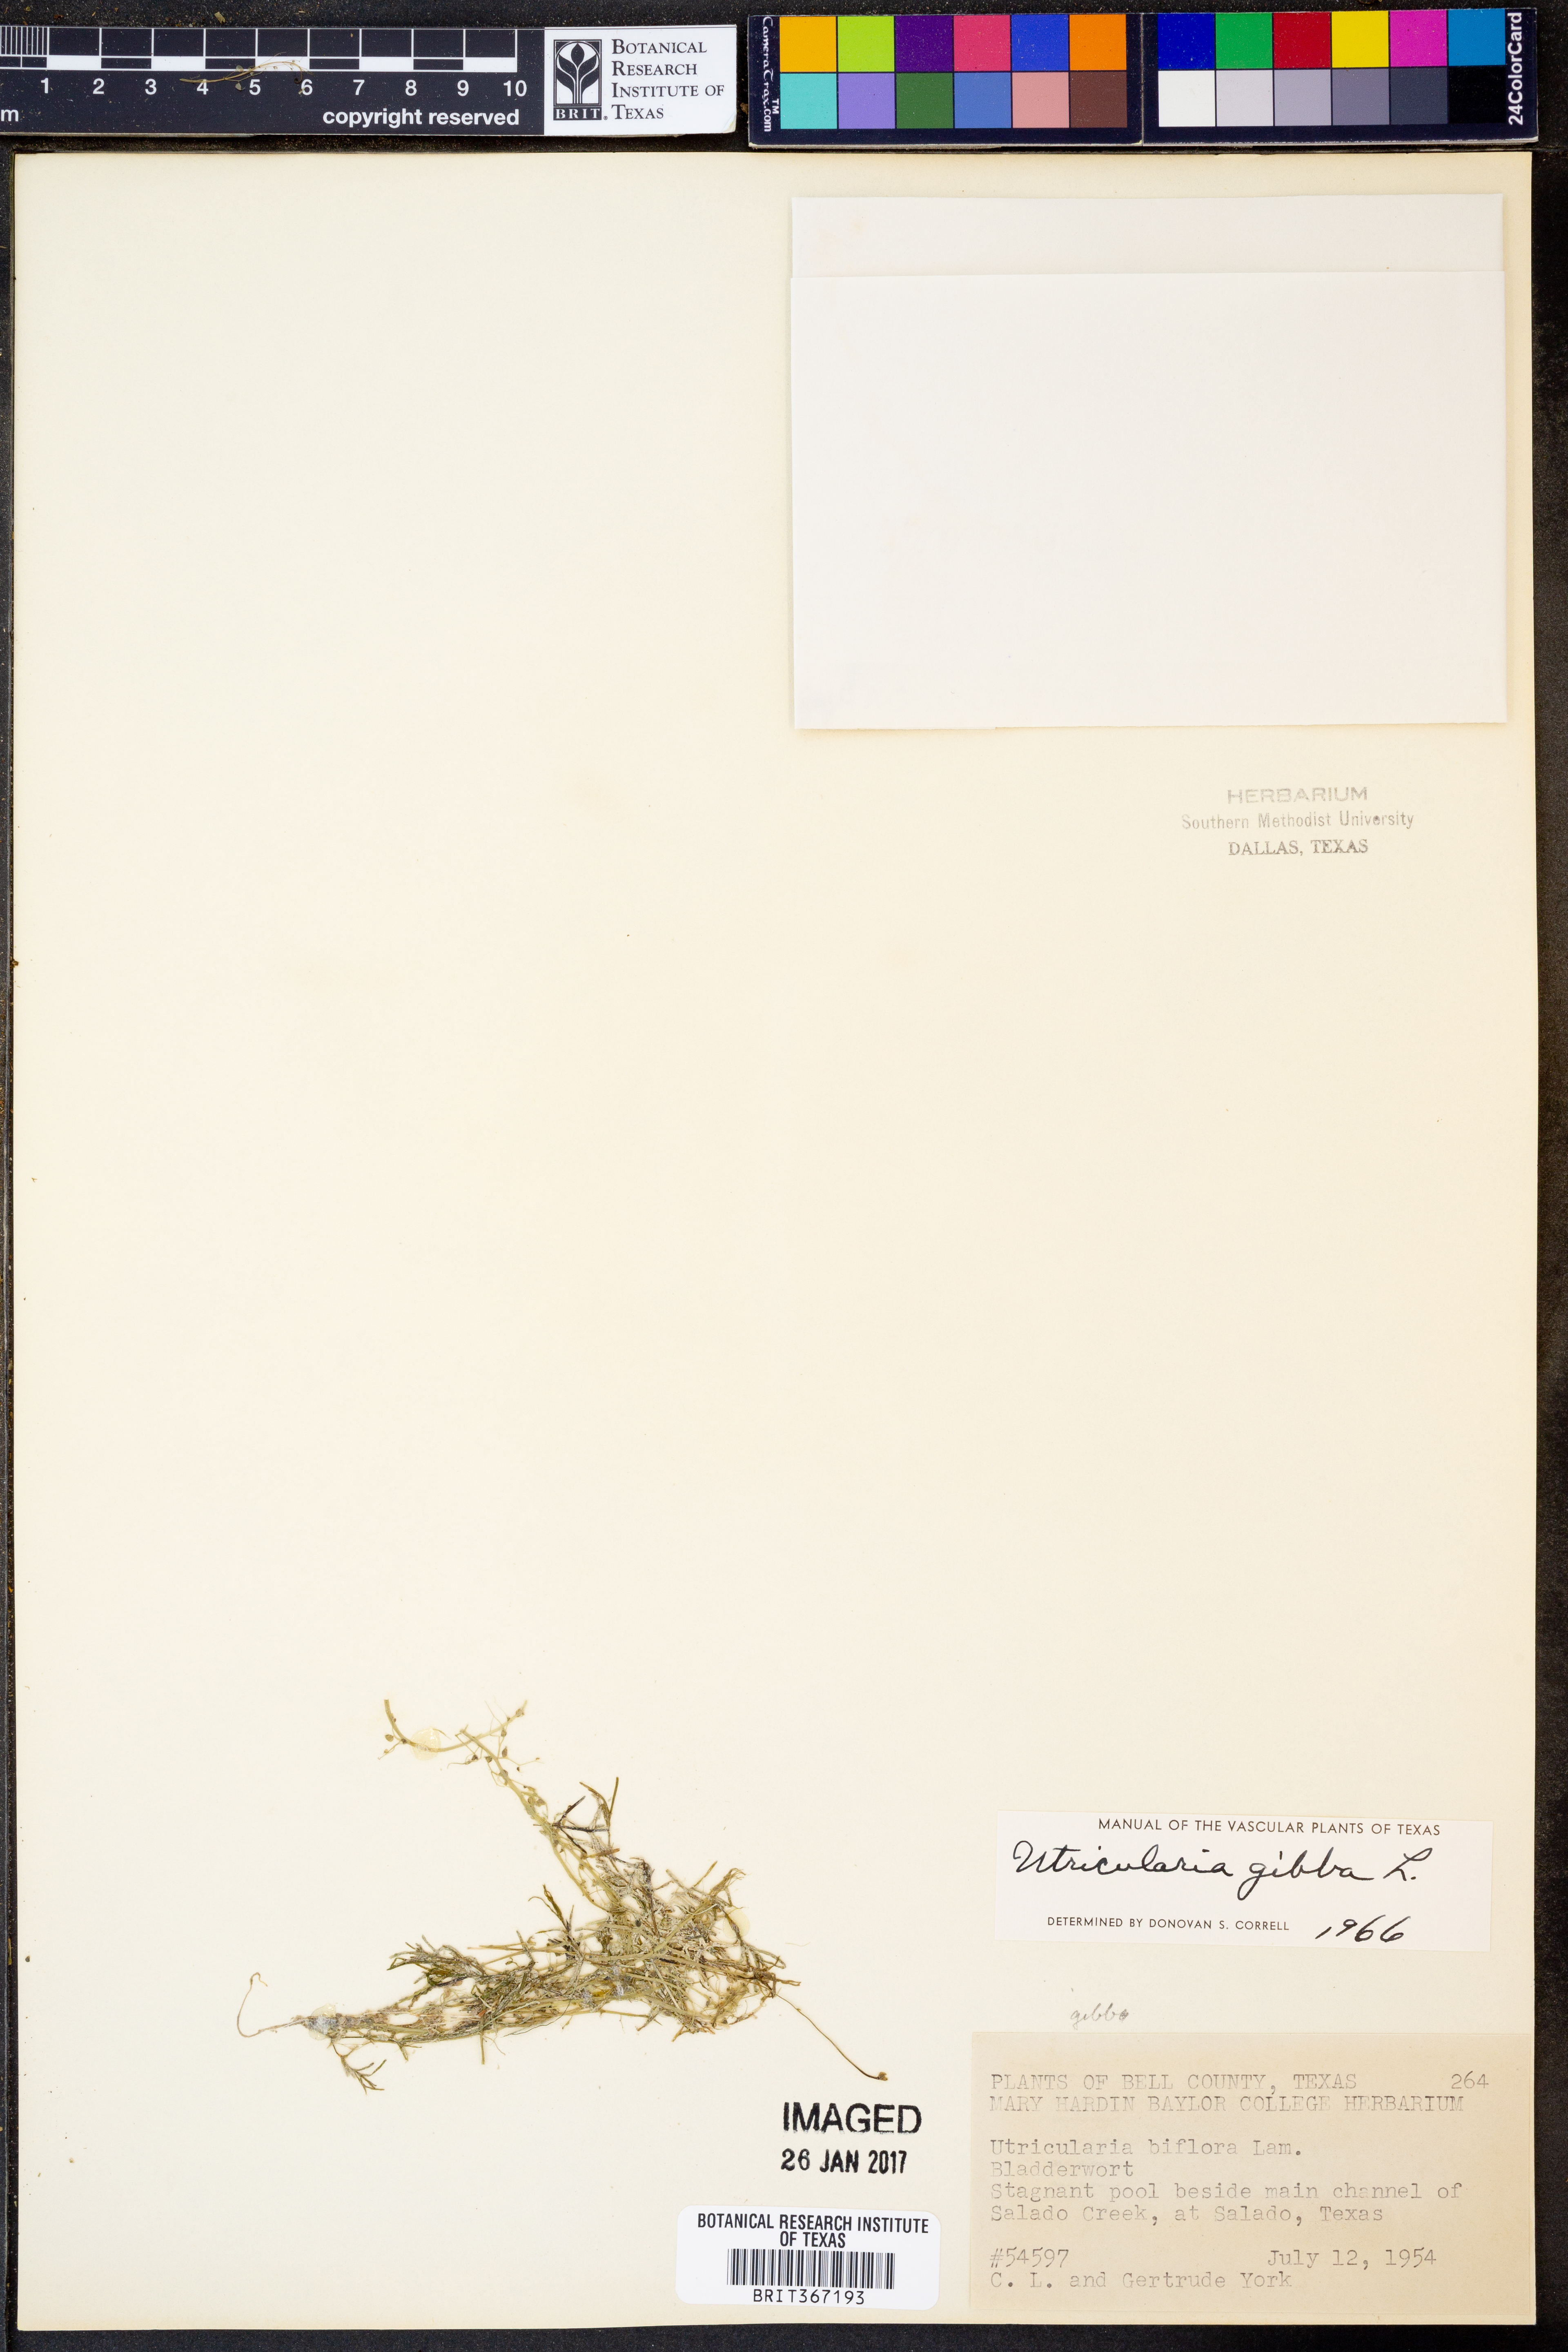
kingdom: Plantae
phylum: Tracheophyta
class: Magnoliopsida
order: Lamiales
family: Lentibulariaceae
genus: Utricularia
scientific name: Utricularia gibba
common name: Humped bladderwort
